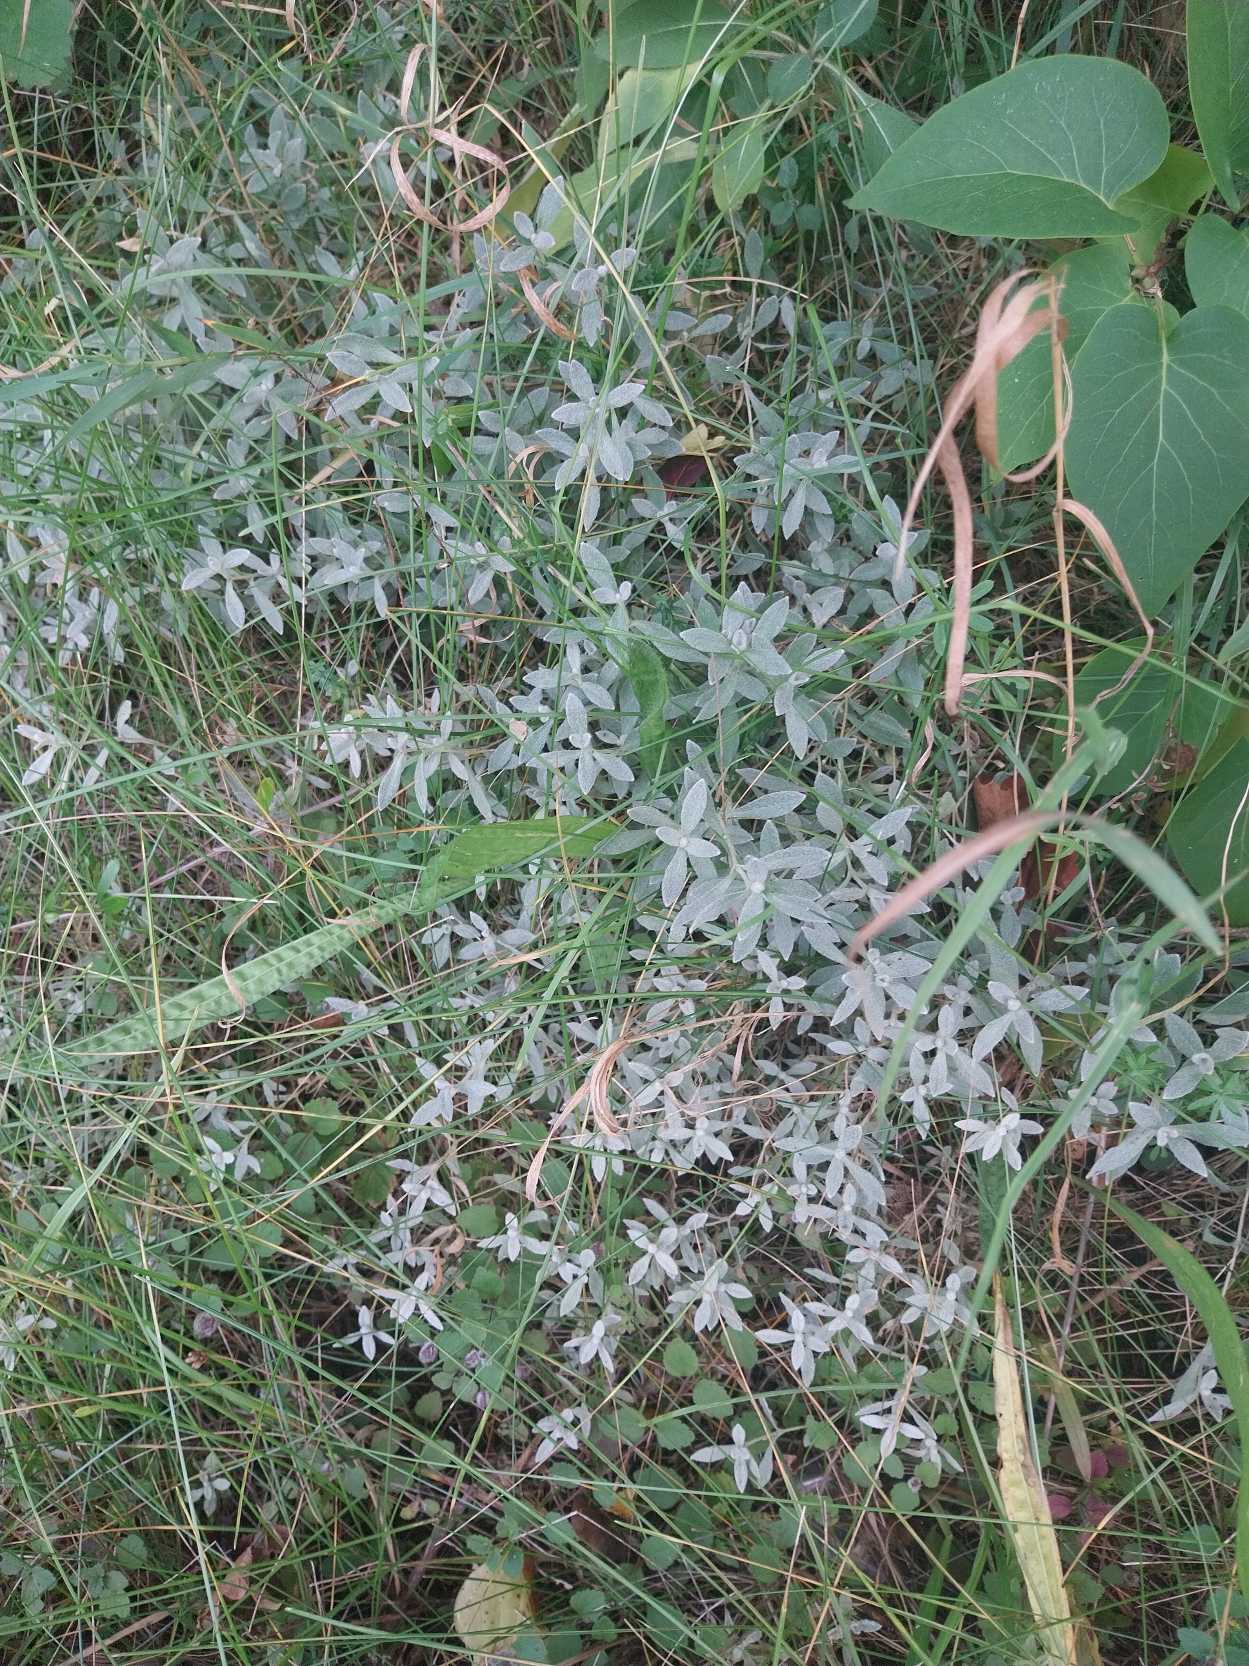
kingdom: Plantae
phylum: Tracheophyta
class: Magnoliopsida
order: Caryophyllales
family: Caryophyllaceae
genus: Cerastium
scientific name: Cerastium tomentosum
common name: Filtet hønsetarm
